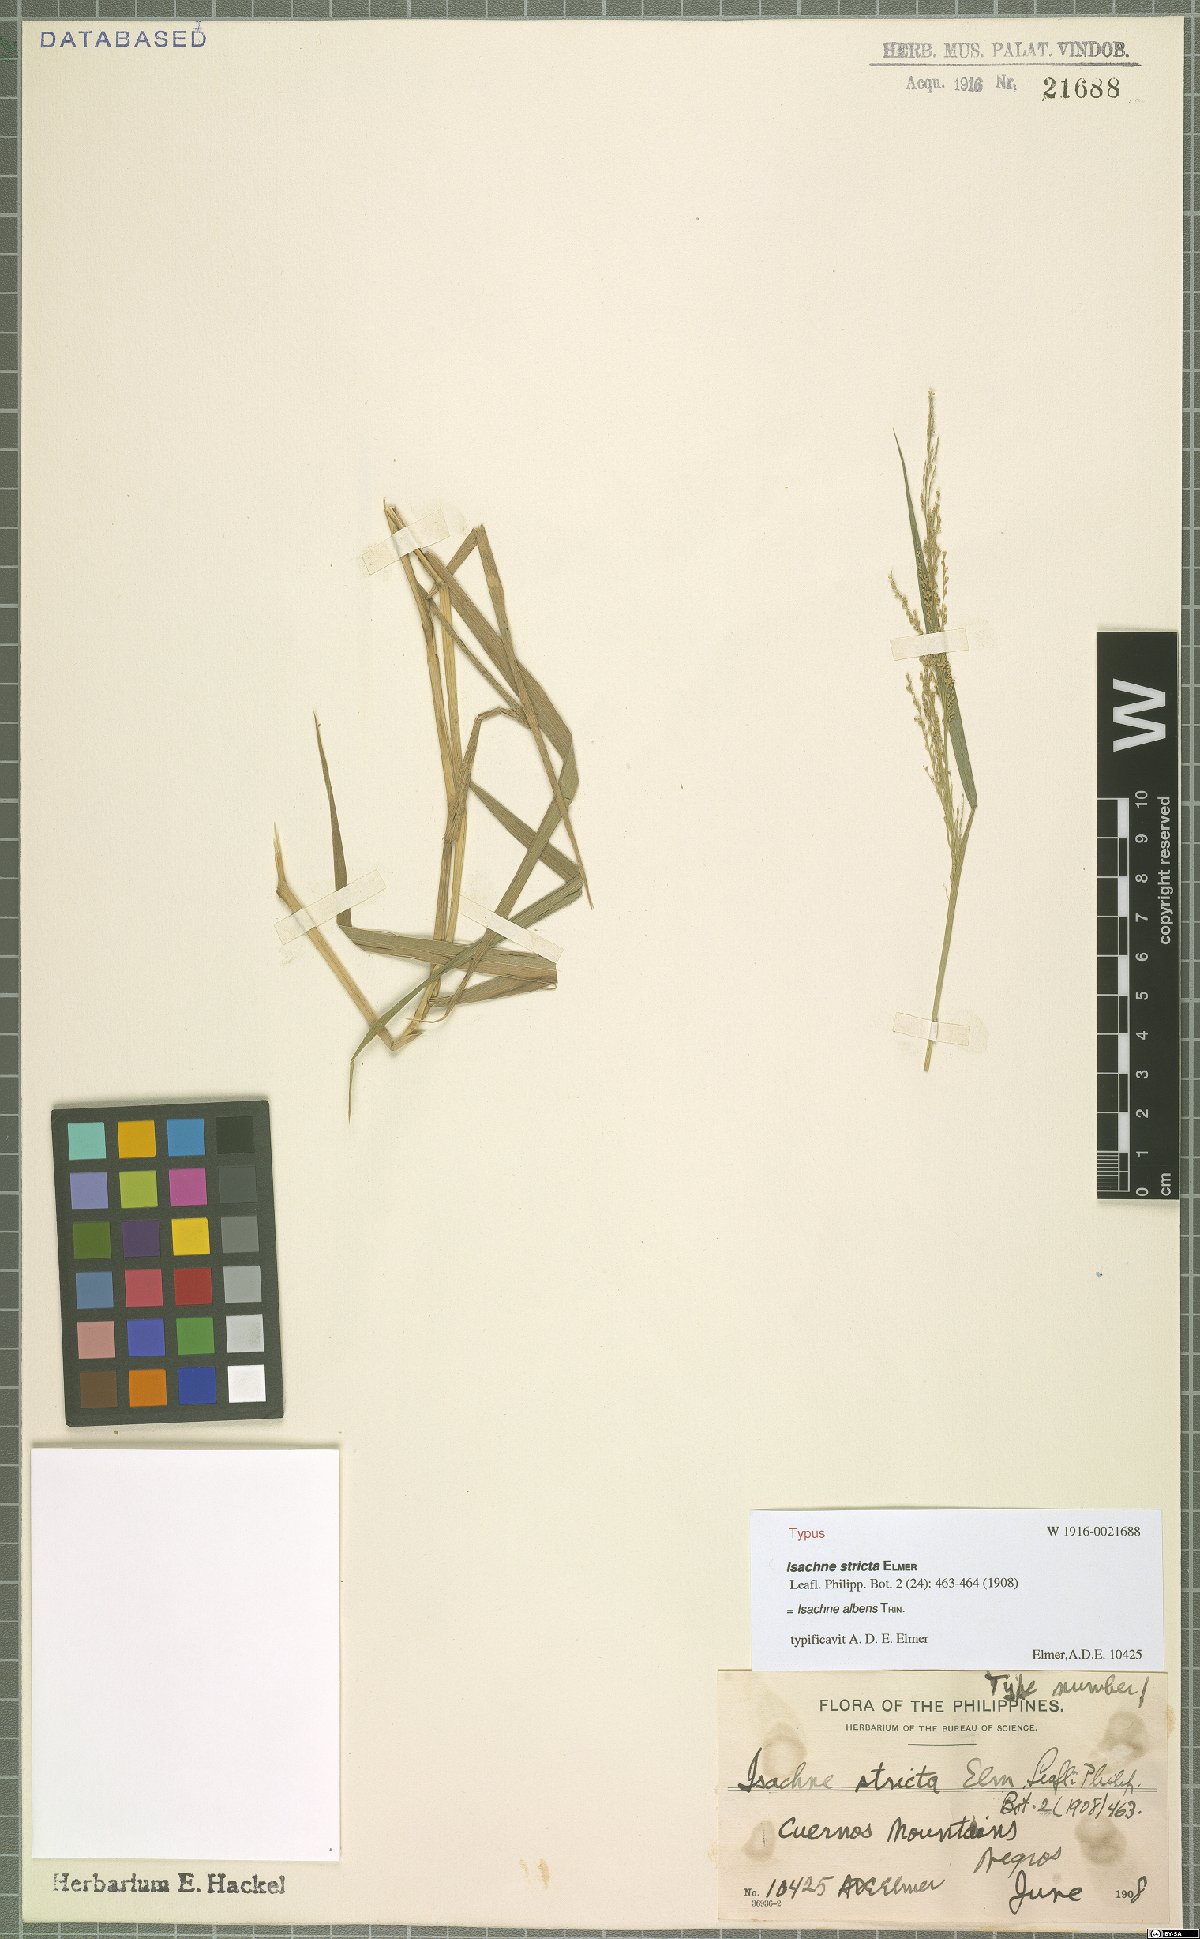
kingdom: Plantae
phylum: Tracheophyta
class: Liliopsida
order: Poales
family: Poaceae
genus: Isachne
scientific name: Isachne albens
